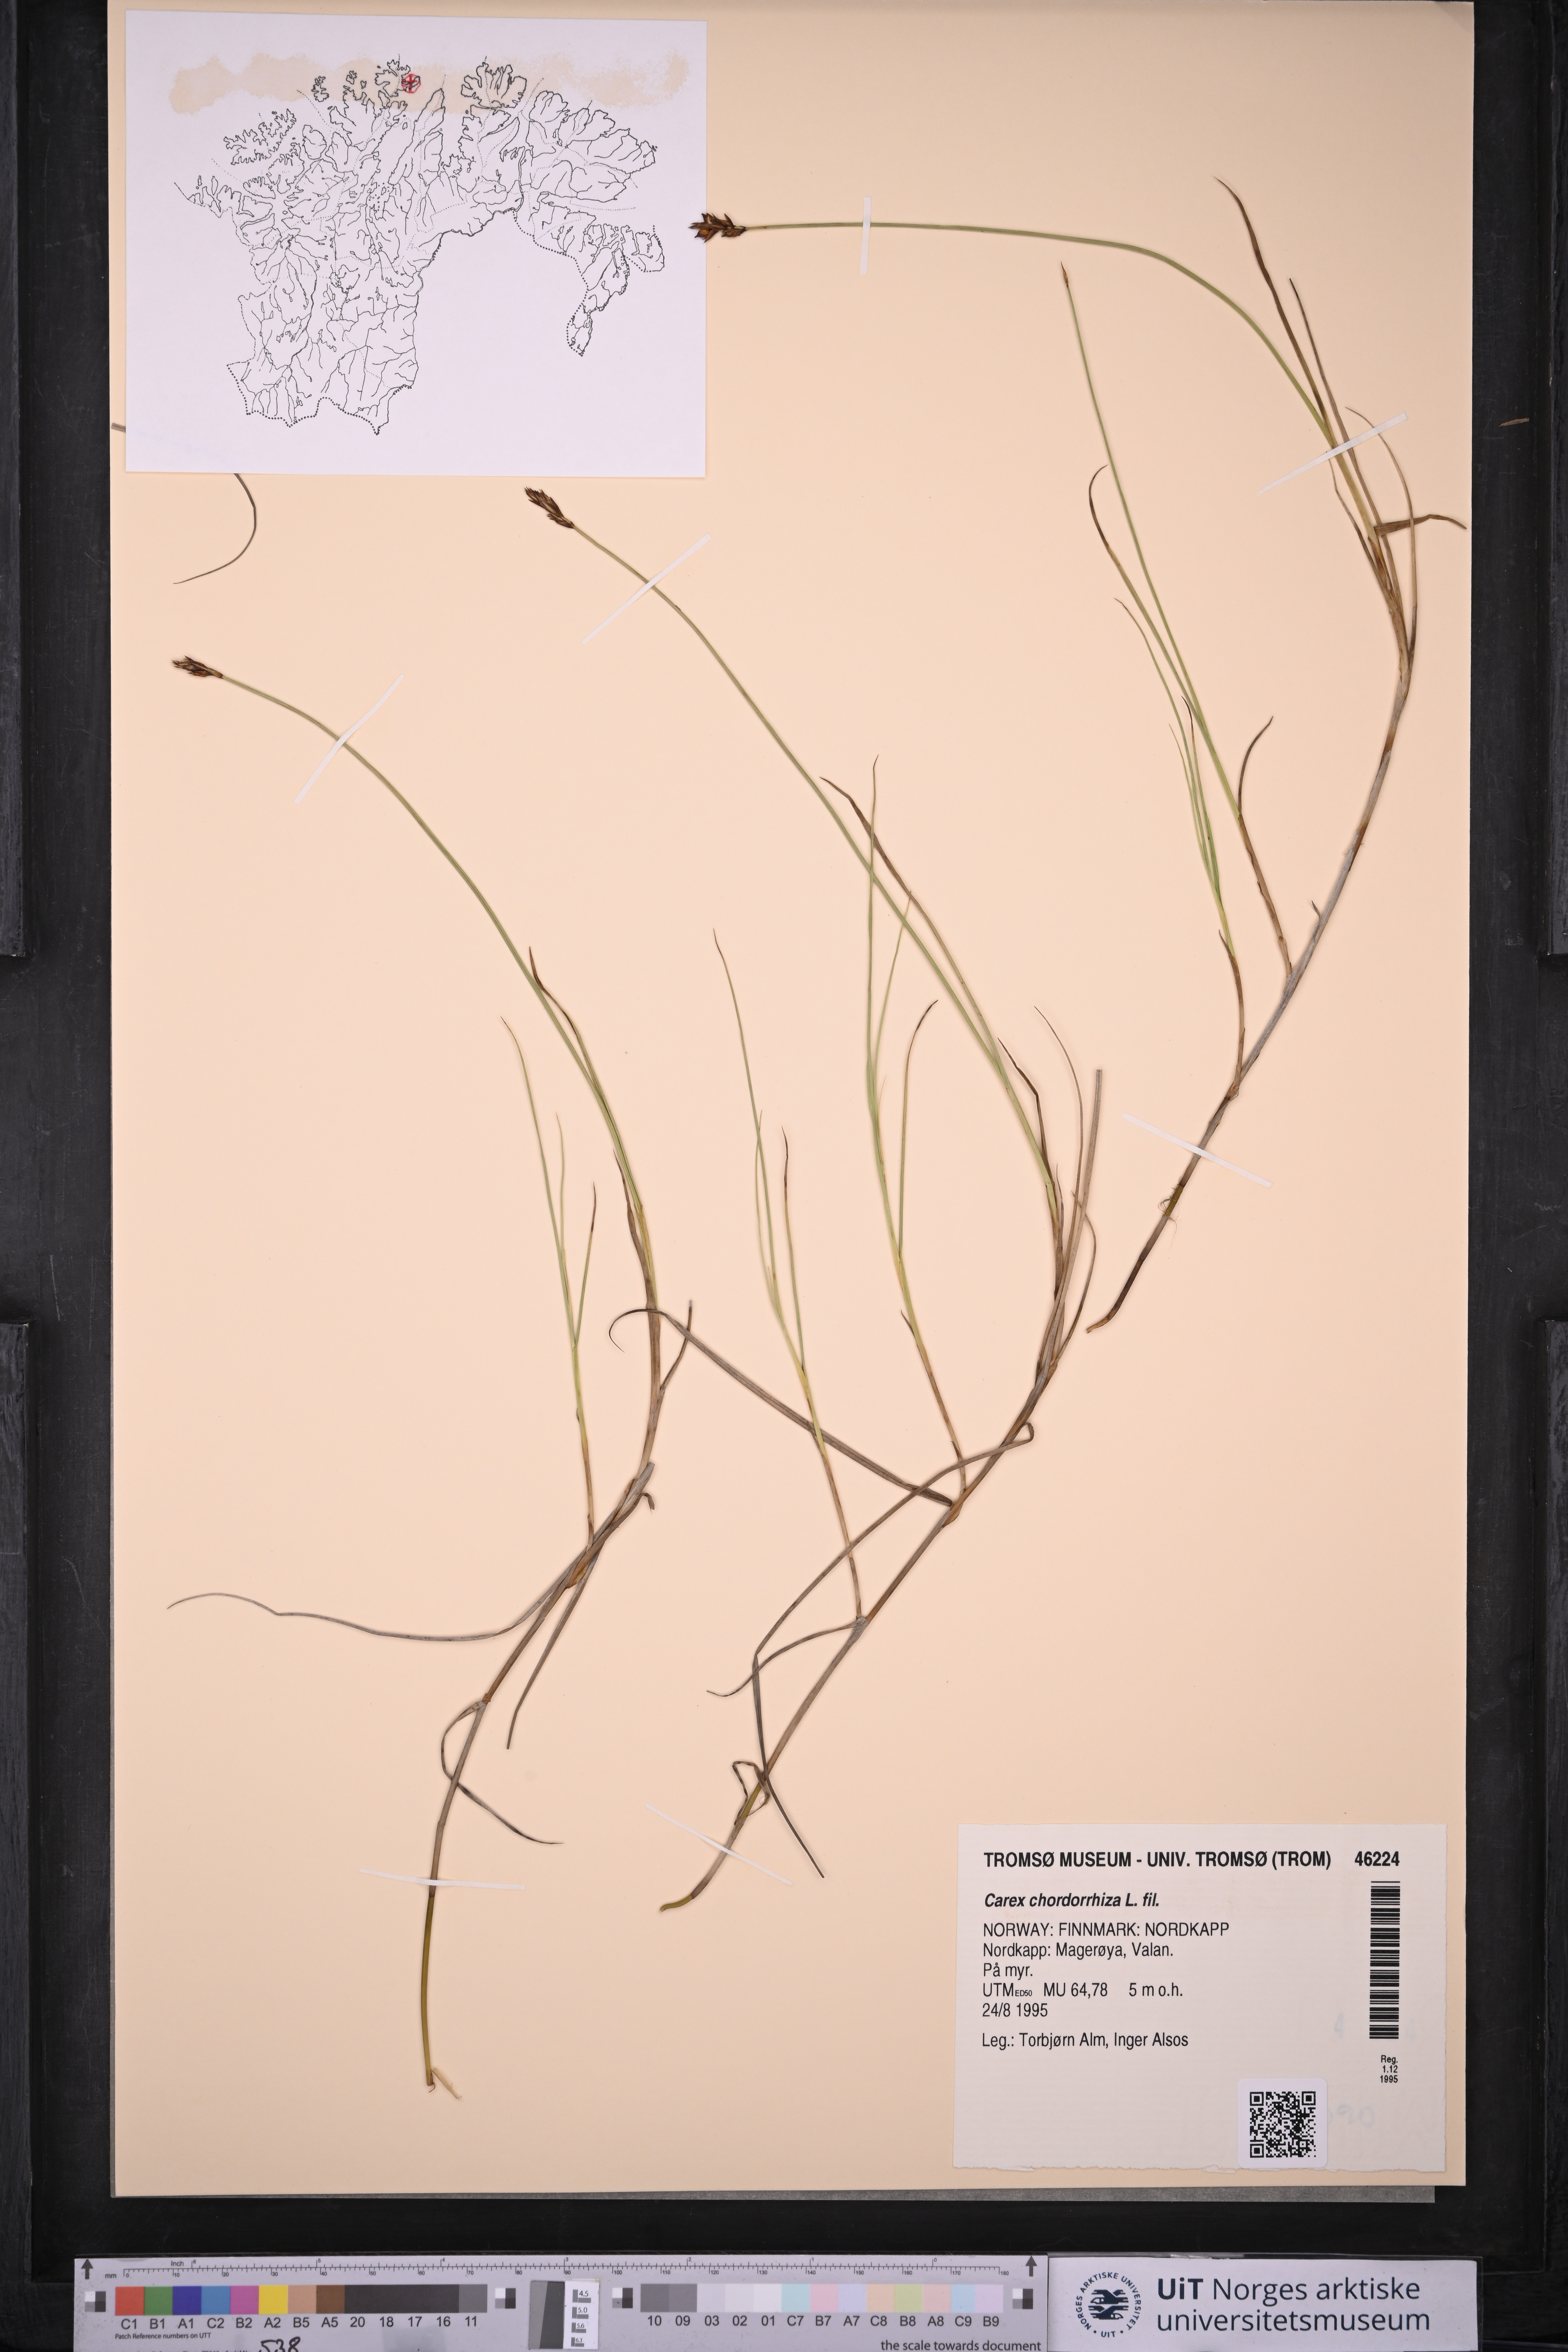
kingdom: Plantae
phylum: Tracheophyta
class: Liliopsida
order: Poales
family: Cyperaceae
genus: Carex
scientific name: Carex chordorrhiza
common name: String sedge
